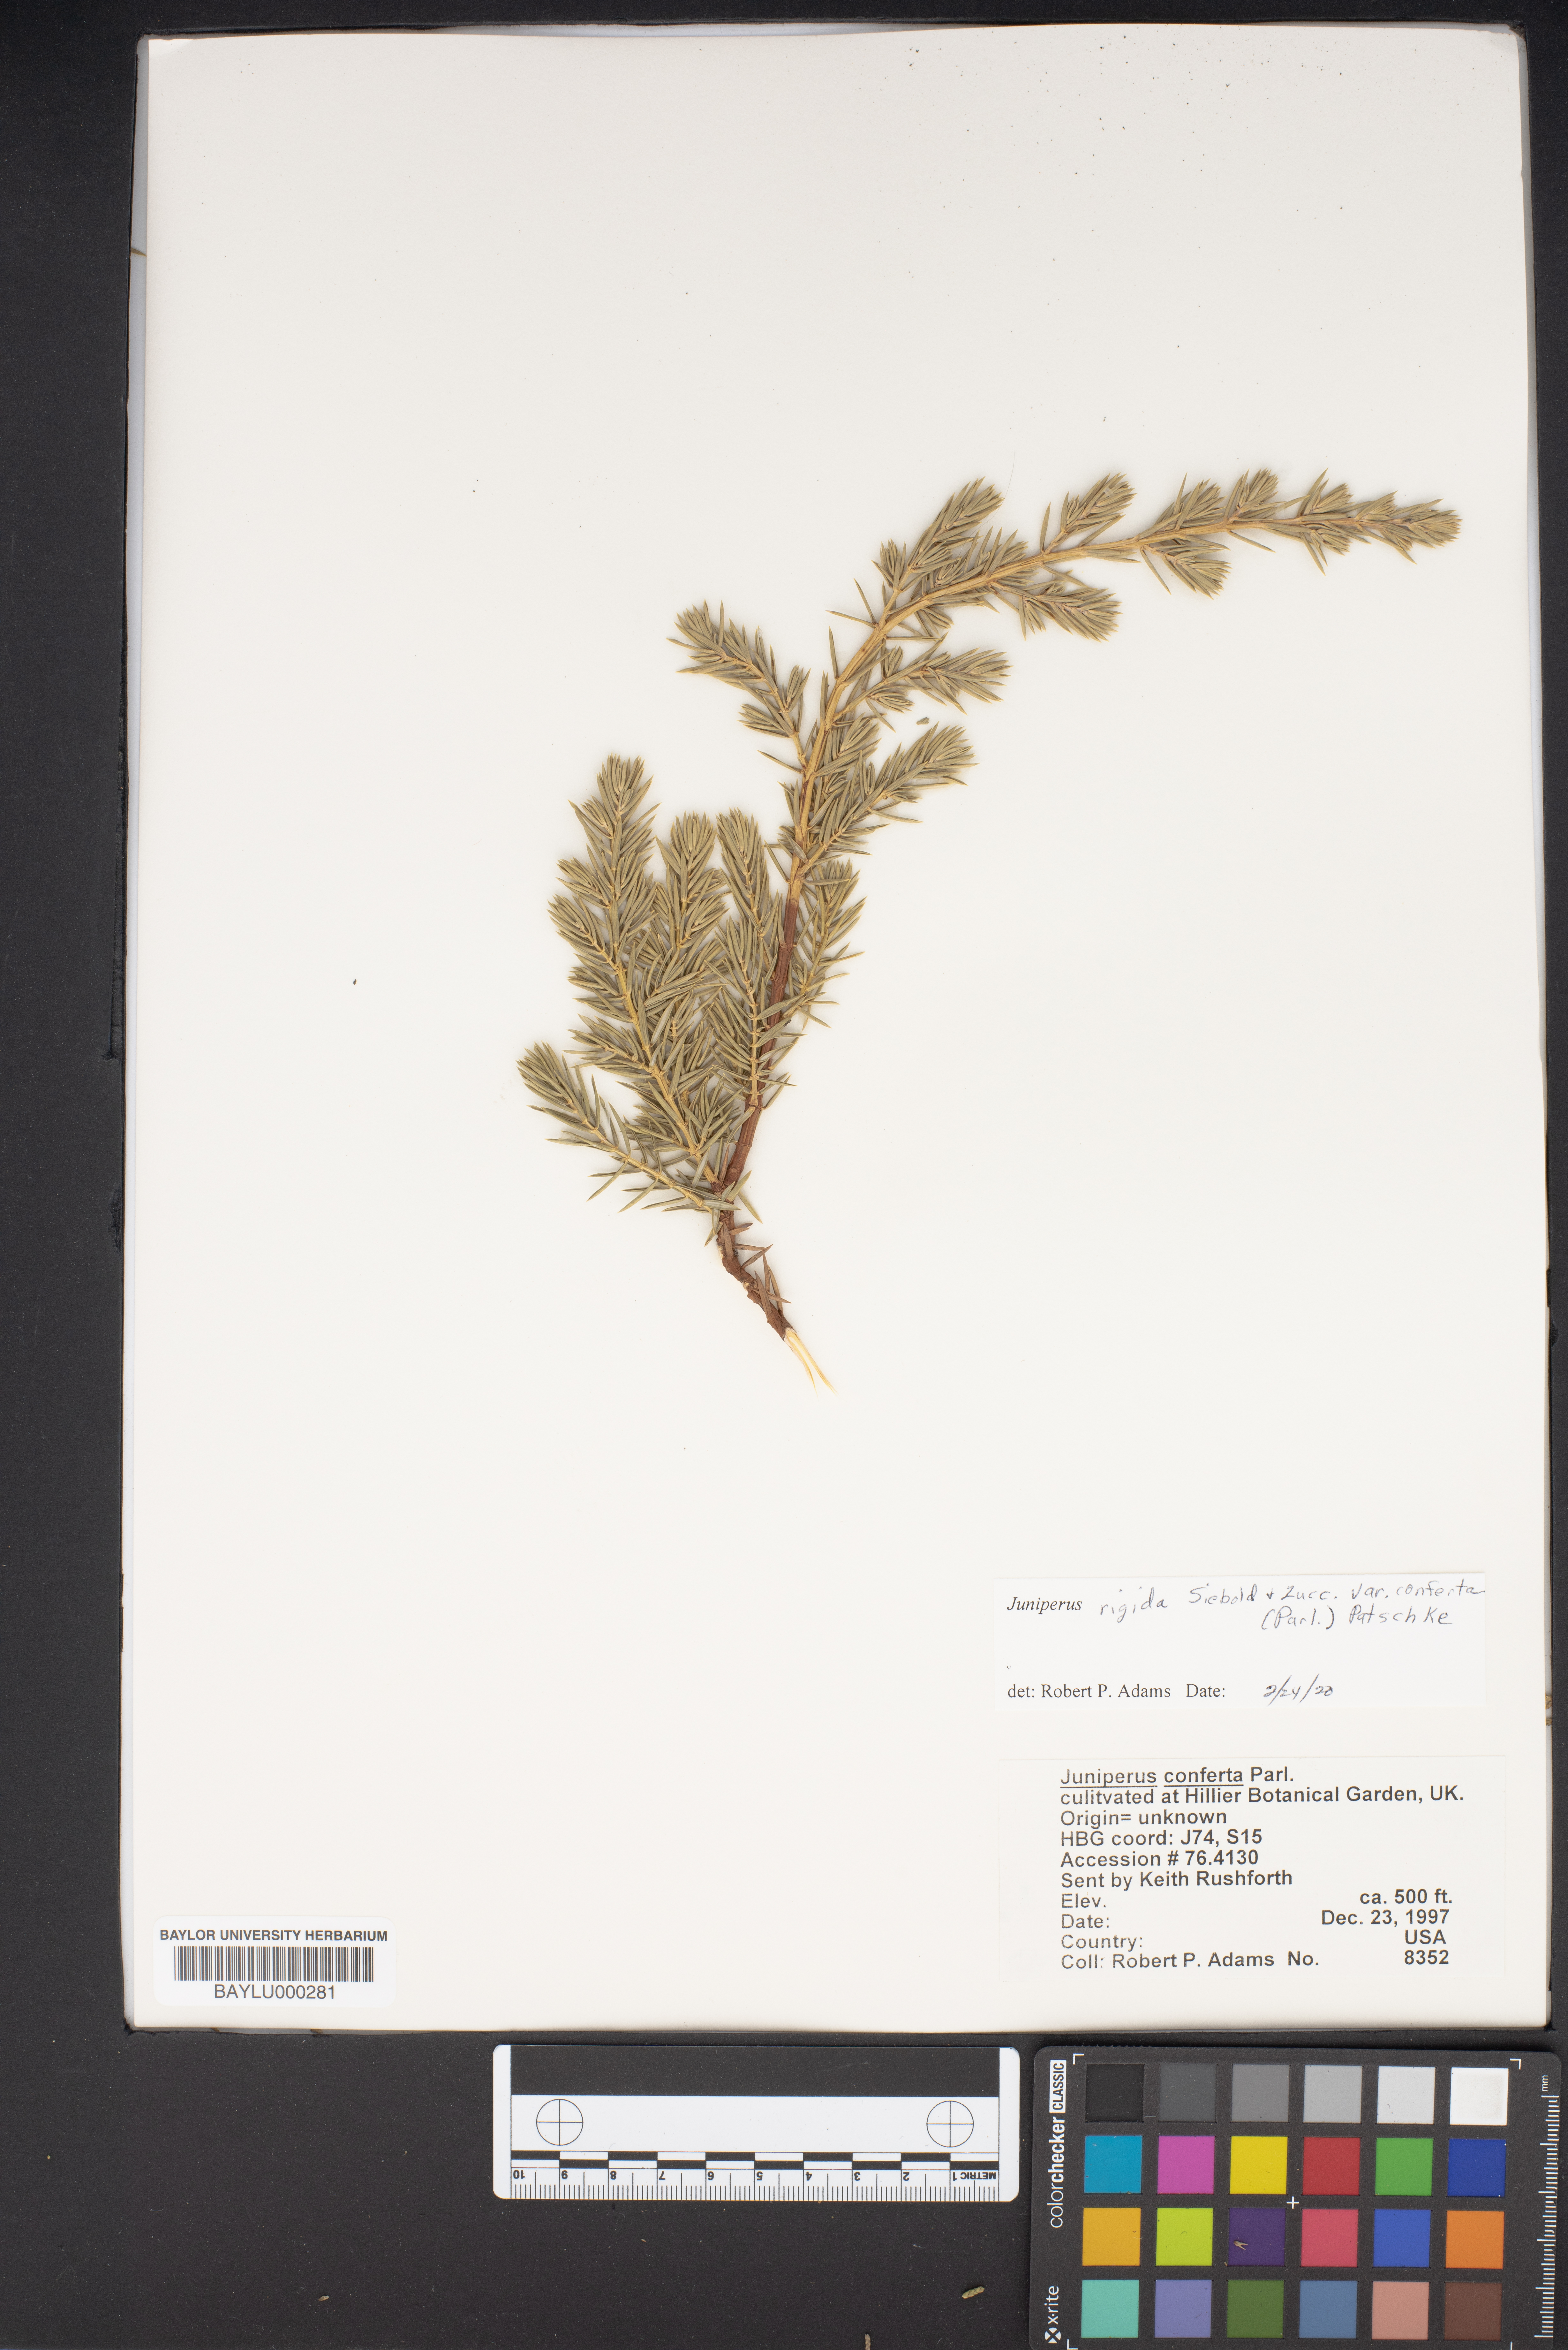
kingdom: Plantae
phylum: Tracheophyta
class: Pinopsida
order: Pinales
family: Cupressaceae
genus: Juniperus
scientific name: Juniperus rigida
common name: Needle juniper
